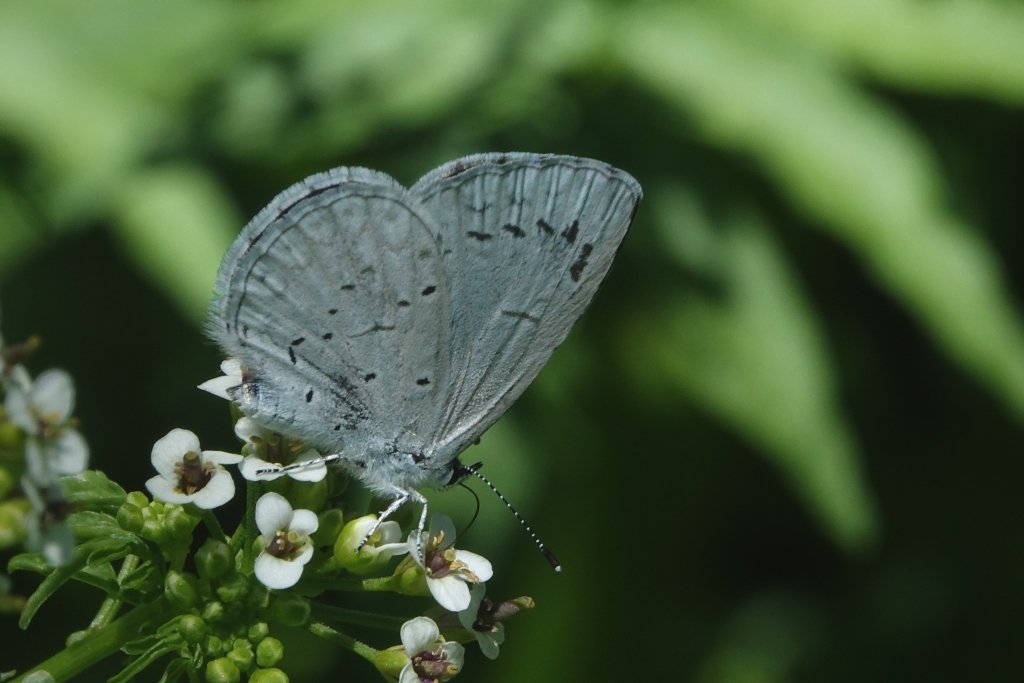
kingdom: Animalia
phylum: Arthropoda
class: Insecta
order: Lepidoptera
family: Lycaenidae
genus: Celastrina
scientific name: Celastrina ladon
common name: Spring Azure
